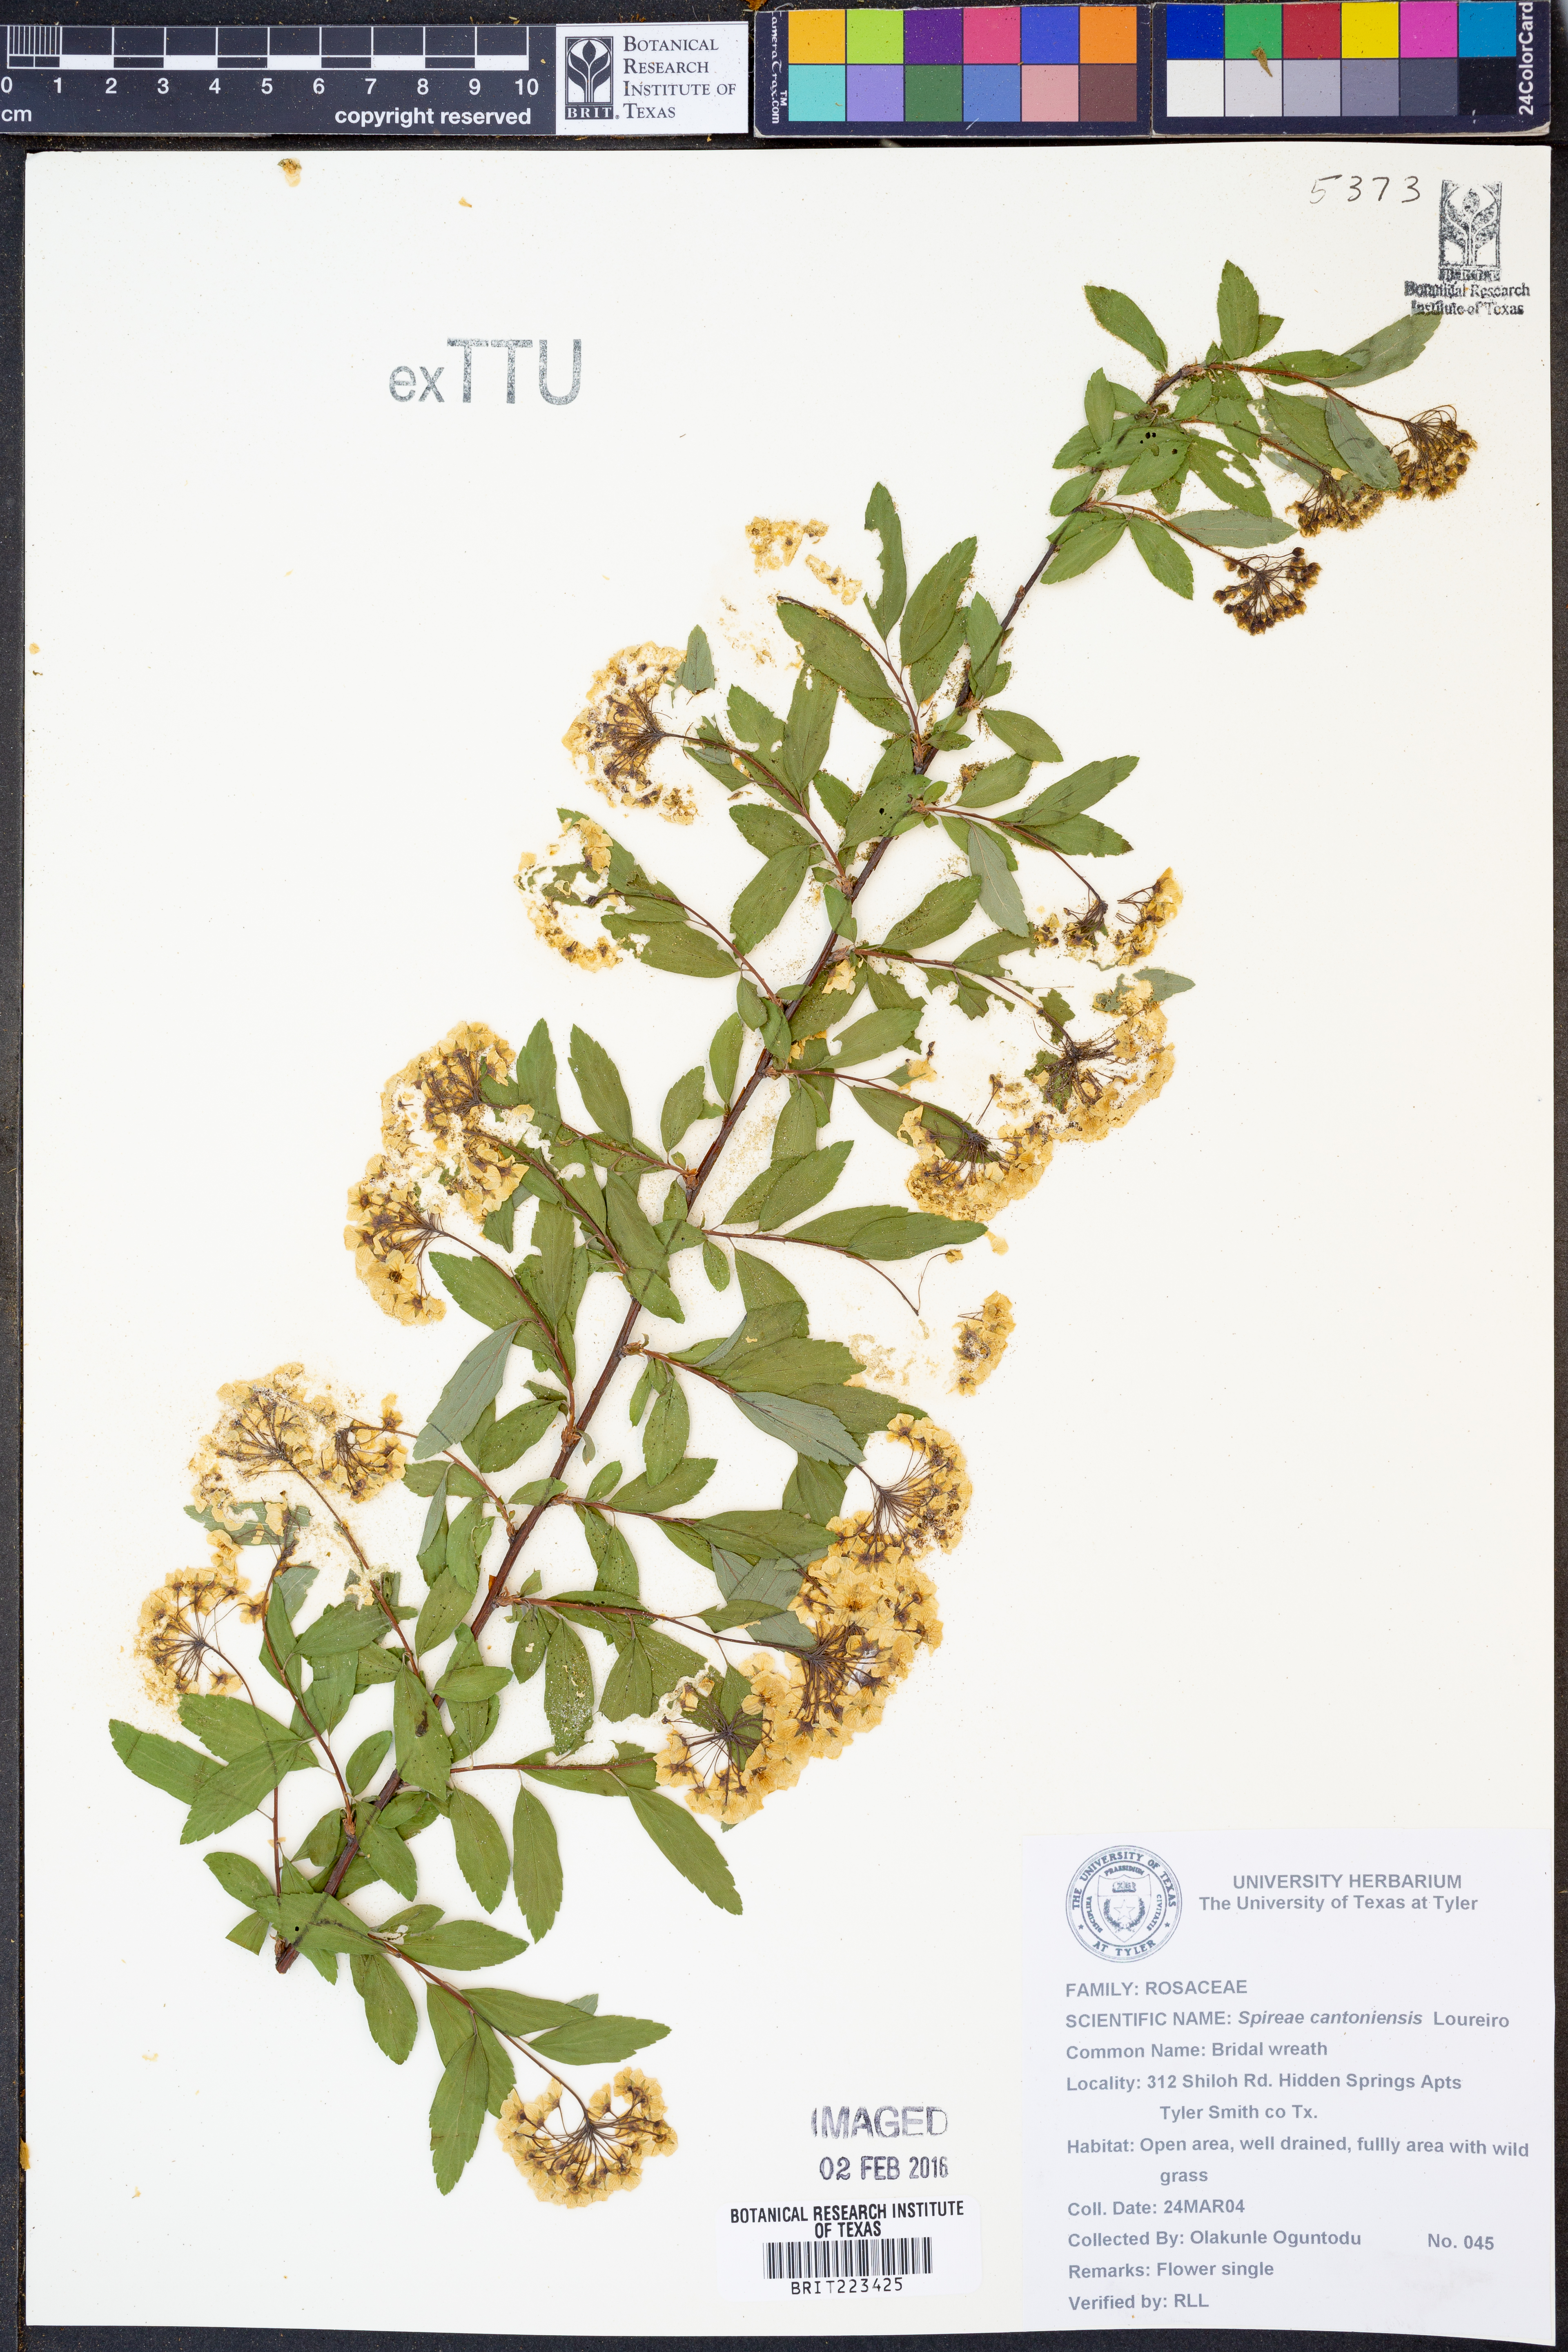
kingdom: Plantae
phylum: Tracheophyta
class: Magnoliopsida
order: Rosales
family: Rosaceae
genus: Spiraea
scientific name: Spiraea cantoniensis
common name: Reeves' meadowsweet
